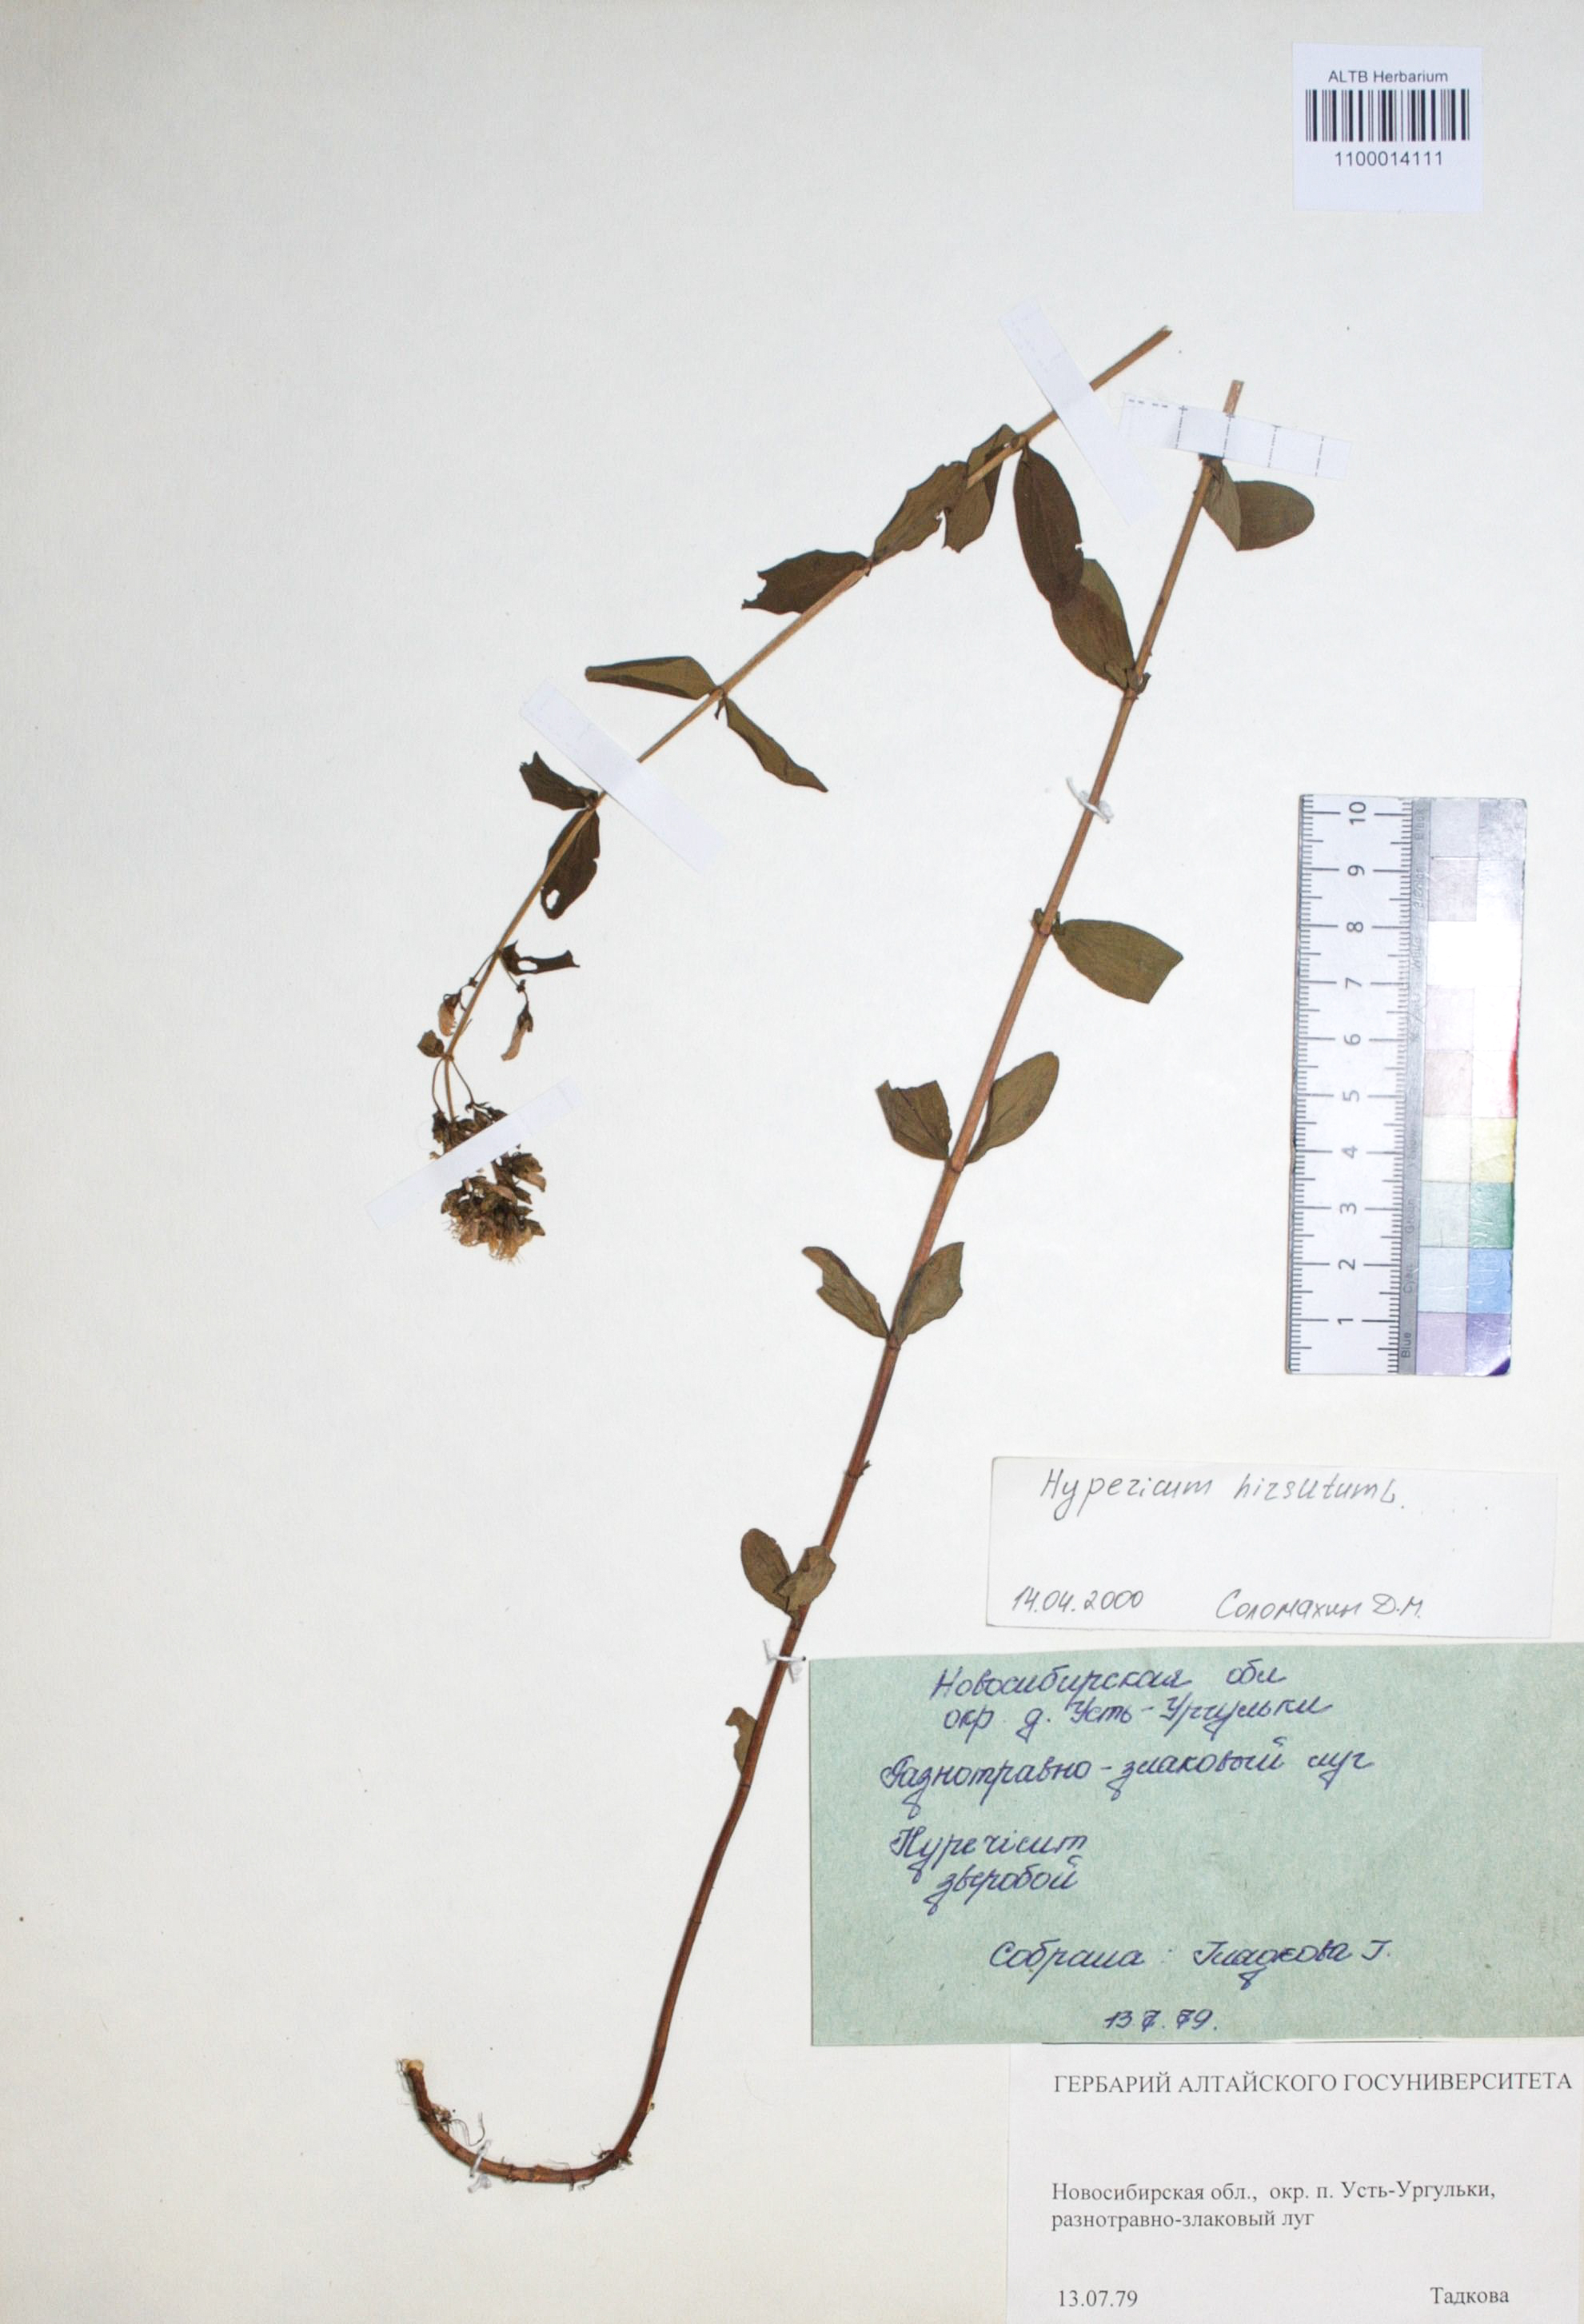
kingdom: Plantae
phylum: Tracheophyta
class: Magnoliopsida
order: Malpighiales
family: Hypericaceae
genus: Hypericum
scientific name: Hypericum hirsutum
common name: Hairy st. john's-wort
